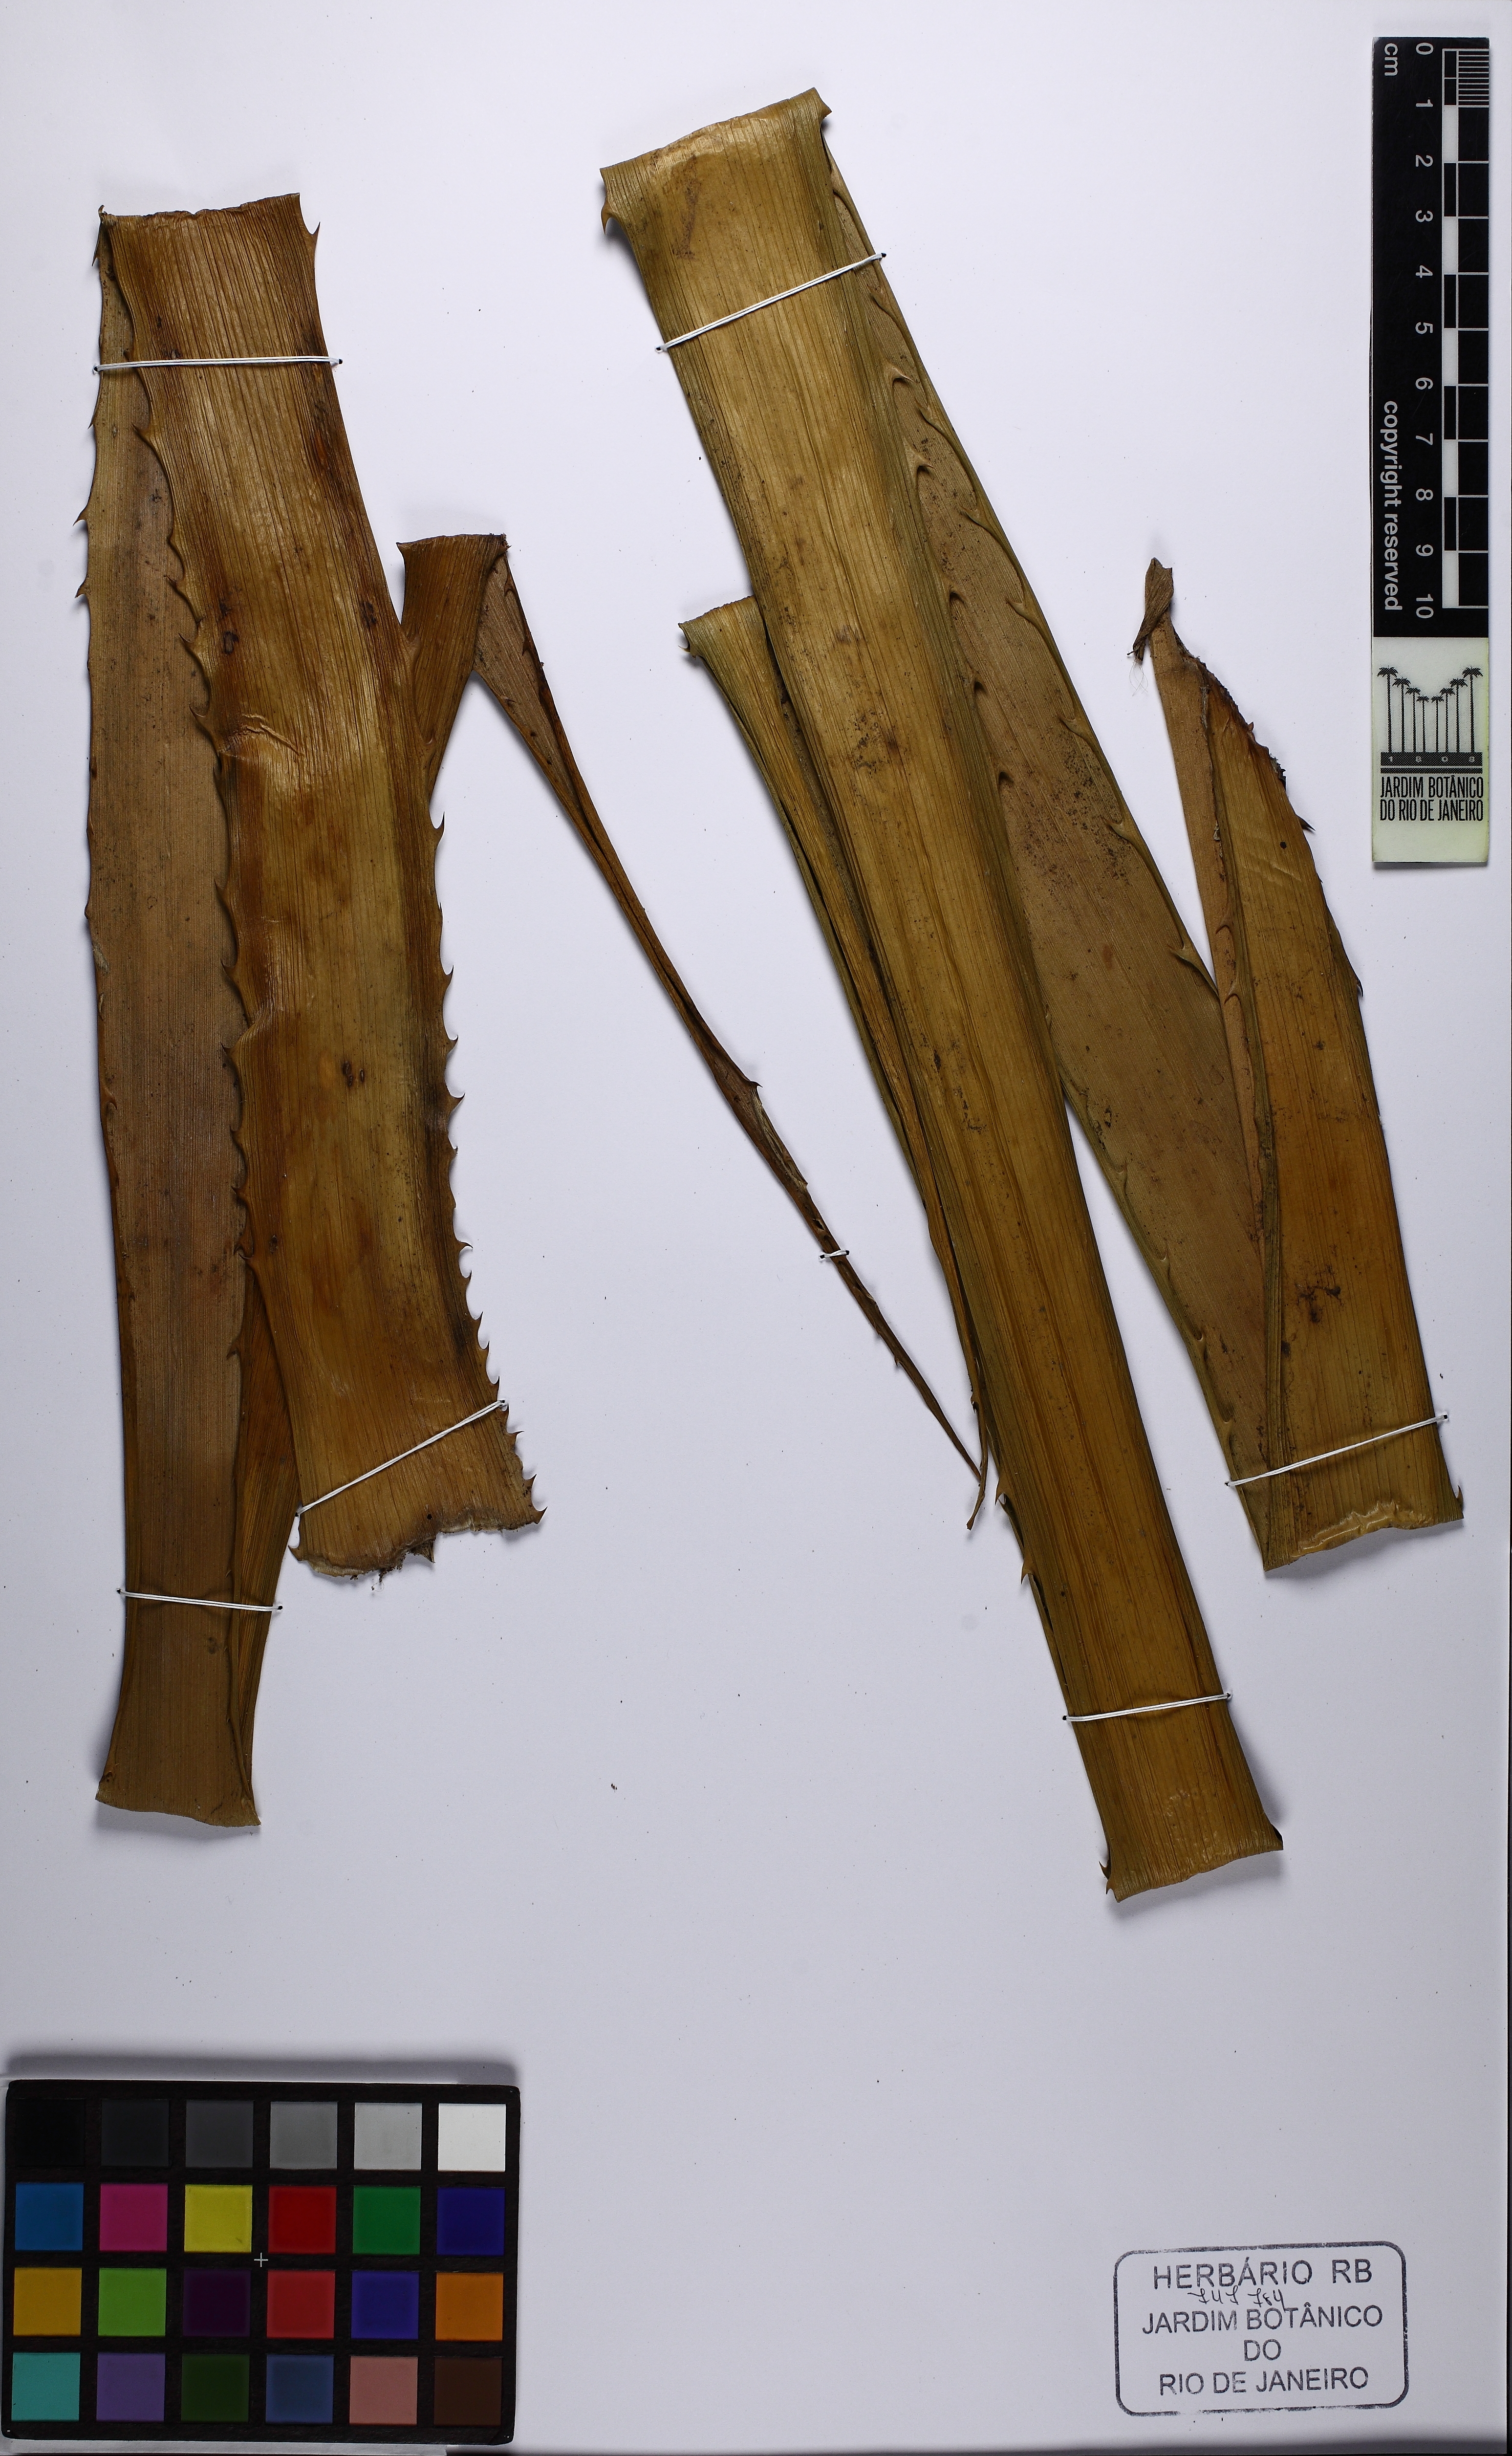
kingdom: Plantae
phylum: Tracheophyta
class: Liliopsida
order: Poales
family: Bromeliaceae
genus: Ananas
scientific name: Ananas comosus
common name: Pineapple
